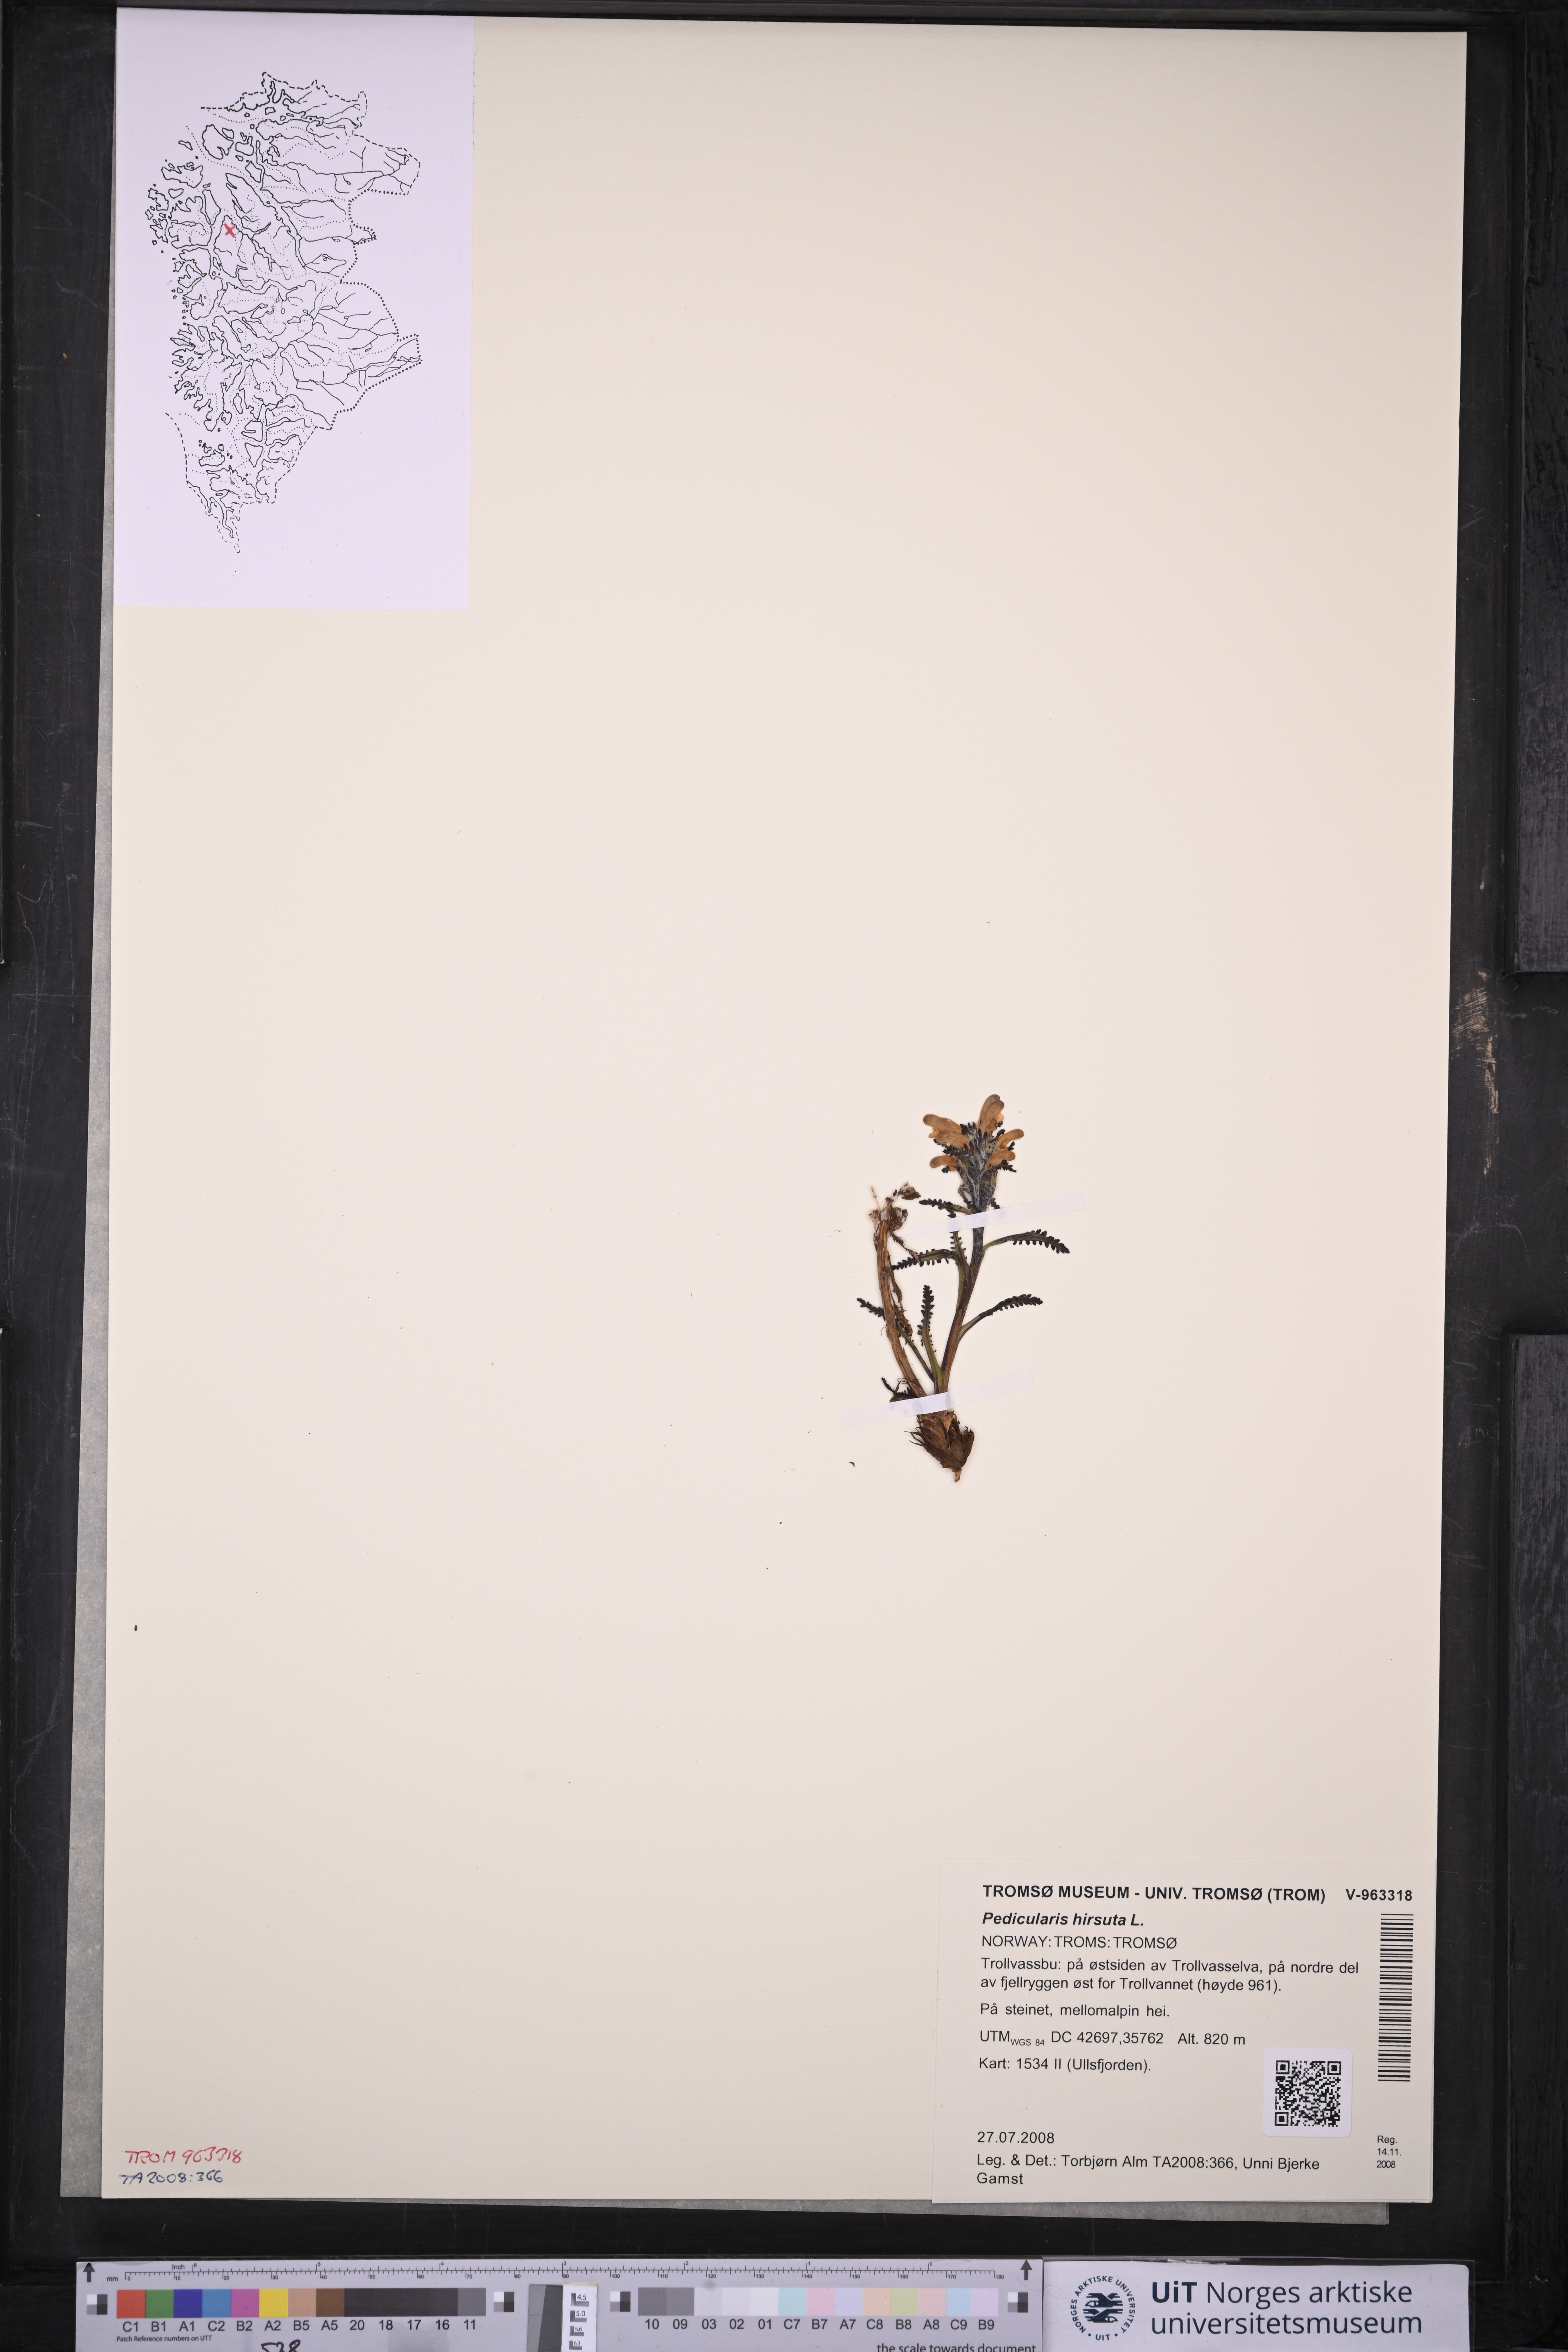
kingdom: Plantae
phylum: Tracheophyta
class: Magnoliopsida
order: Lamiales
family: Orobanchaceae
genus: Pedicularis
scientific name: Pedicularis hirsuta
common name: Hairy lousewort
